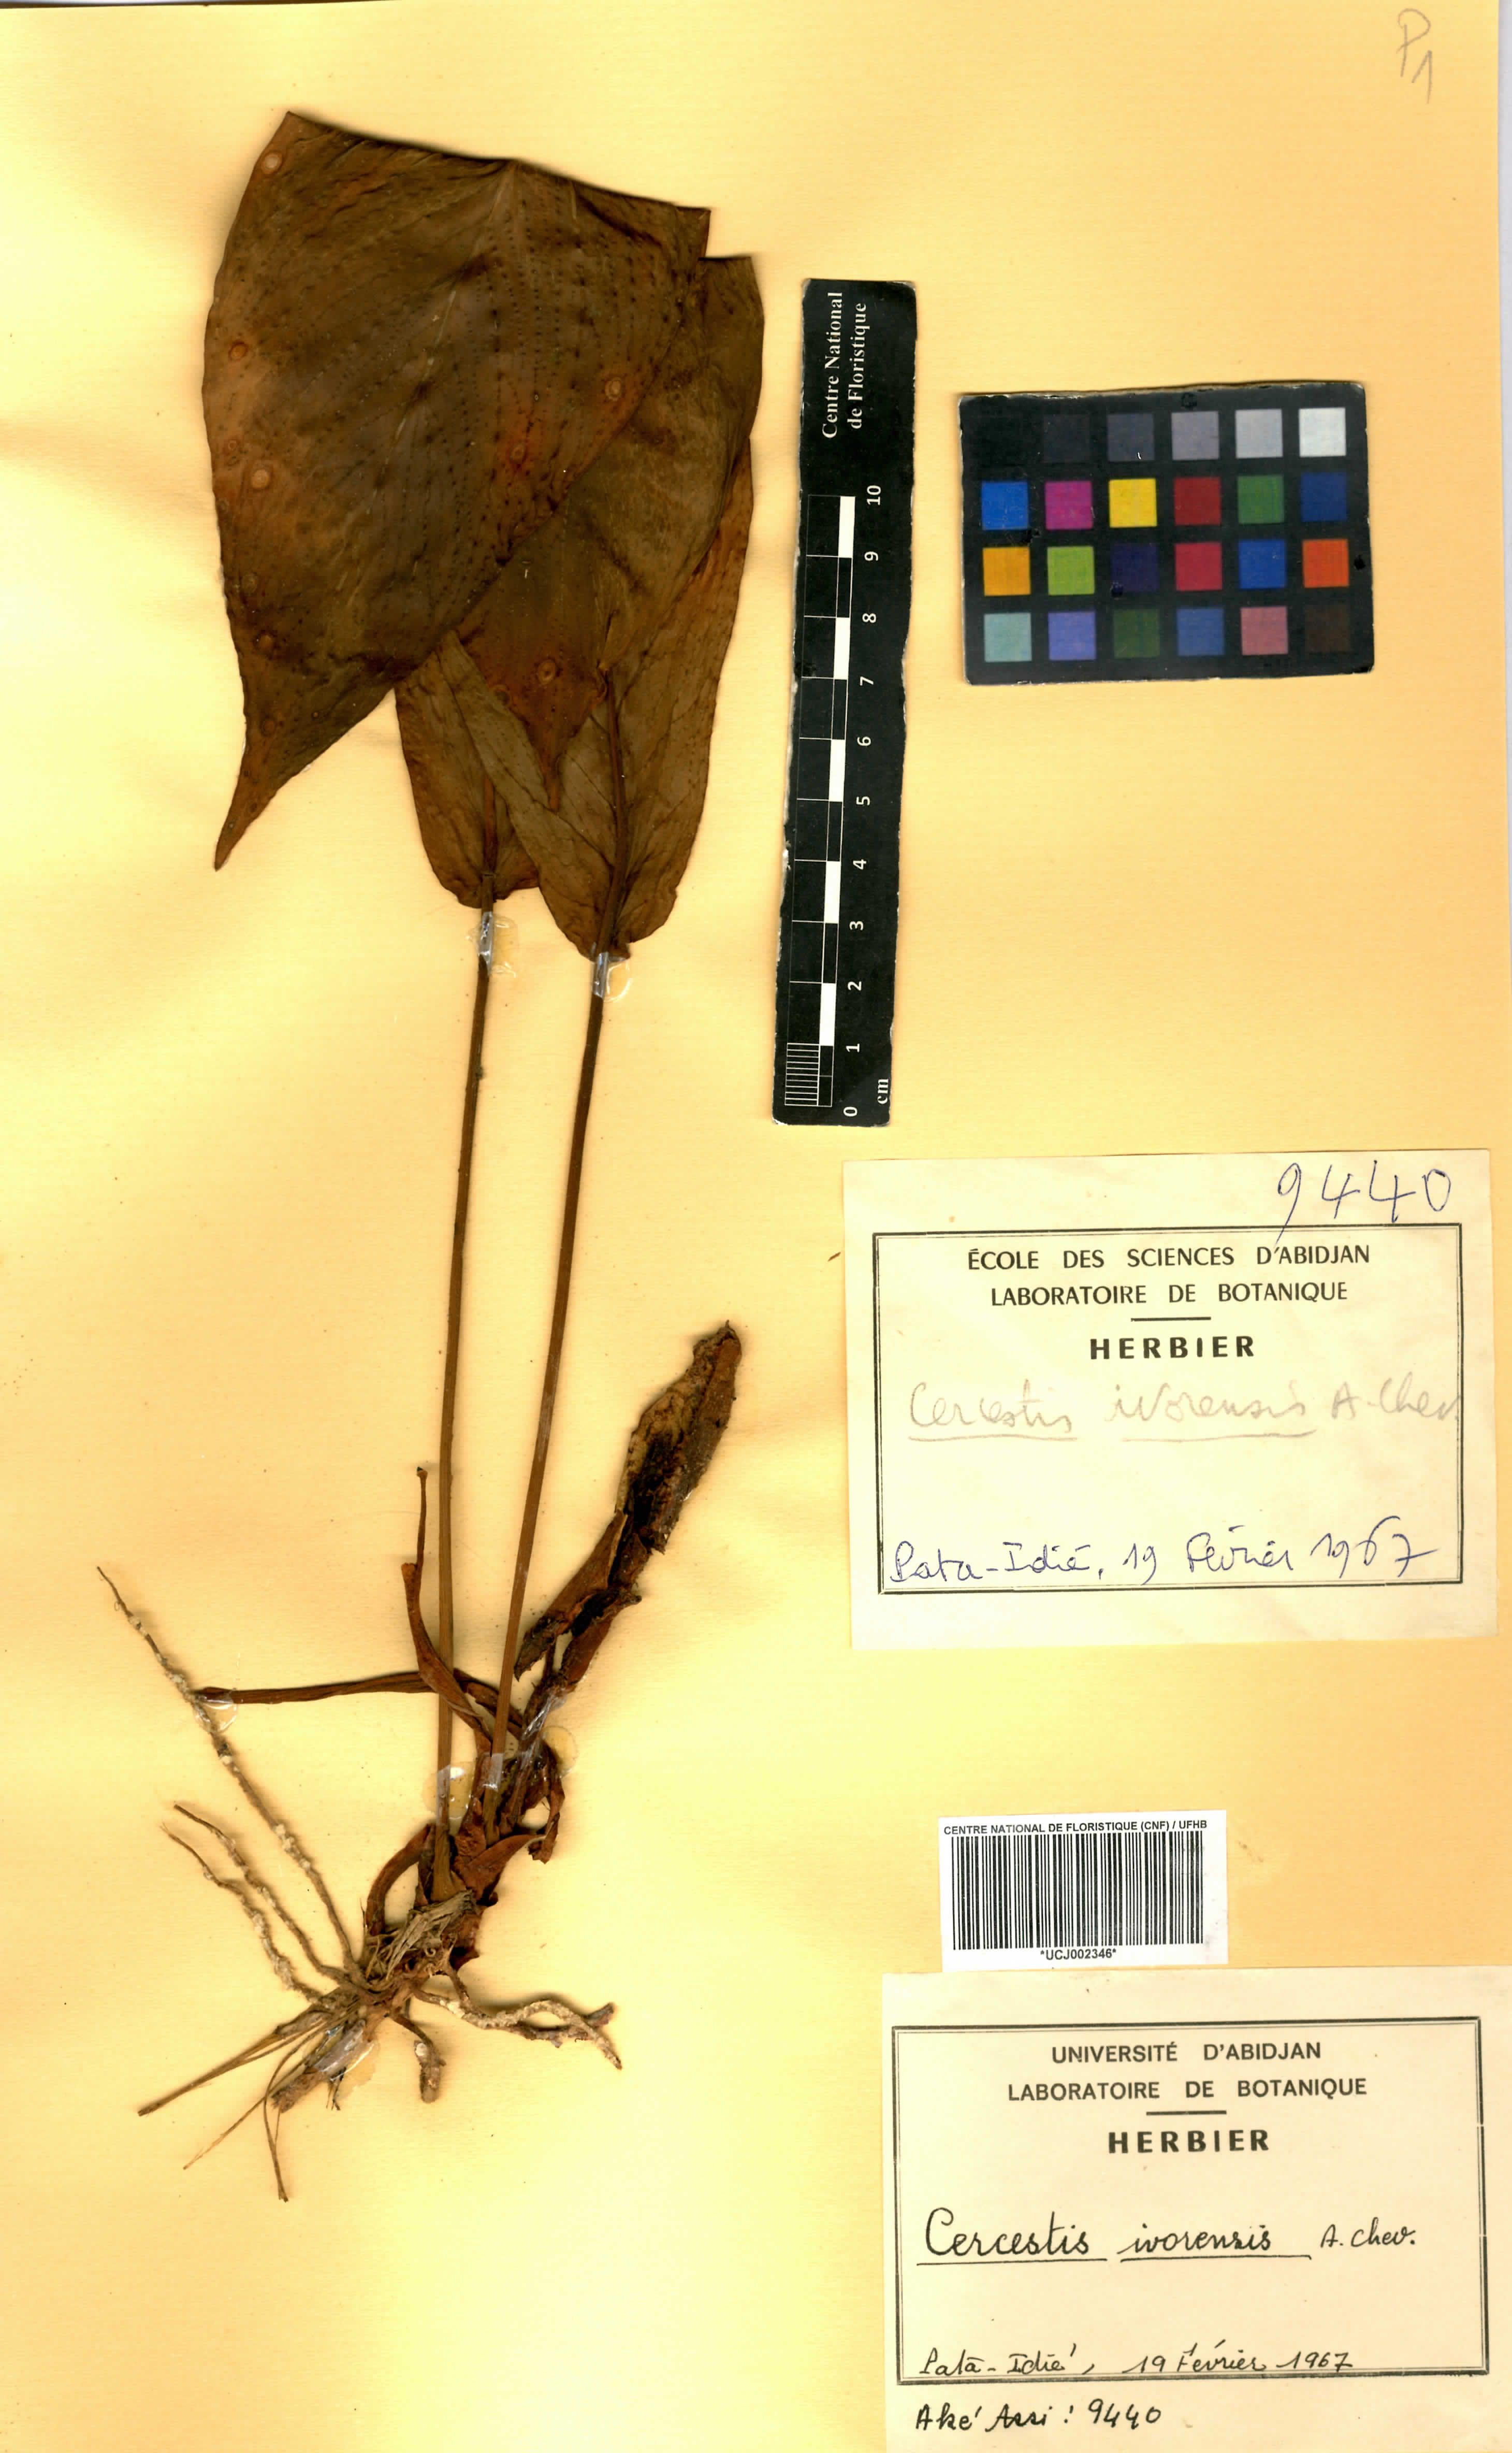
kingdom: Plantae
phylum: Tracheophyta
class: Liliopsida
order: Alismatales
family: Araceae
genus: Cercestis
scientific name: Cercestis ivorensis
